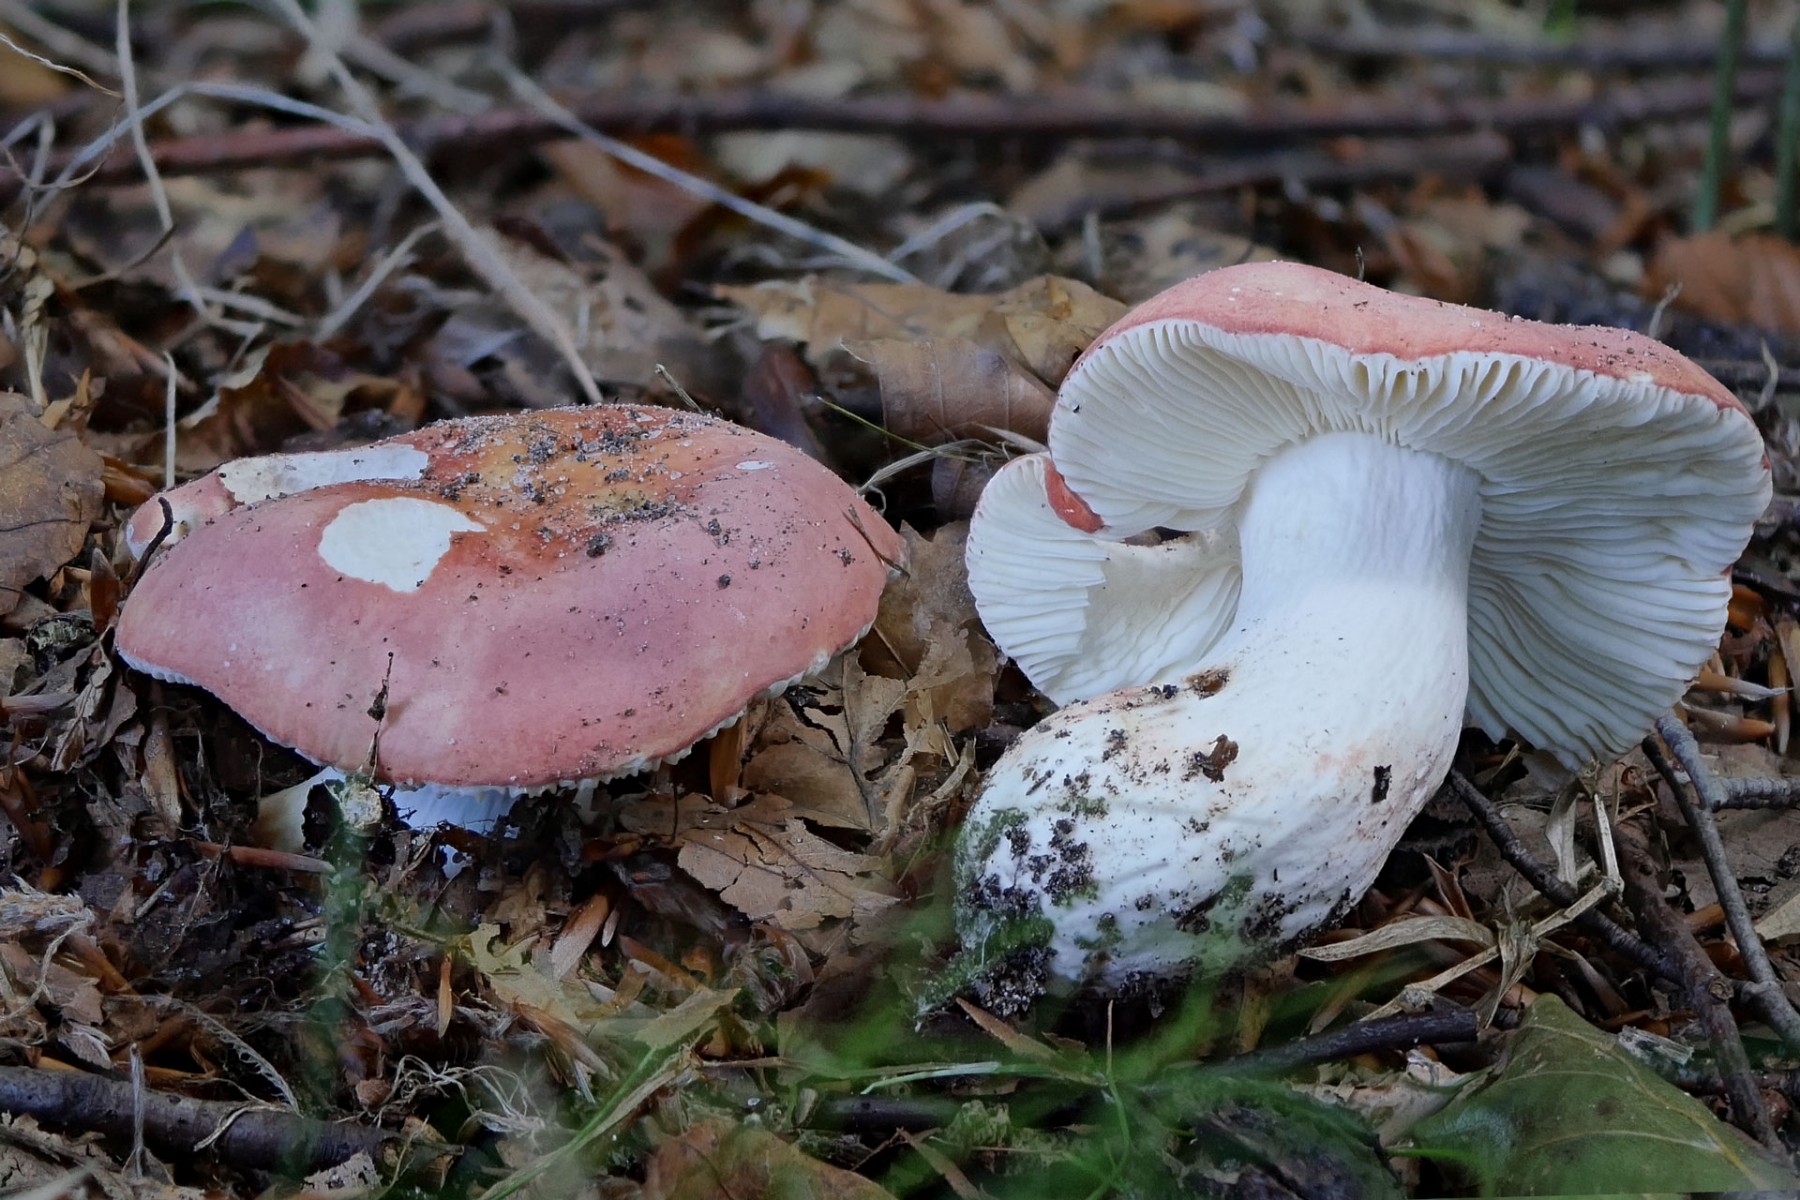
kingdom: Fungi
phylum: Basidiomycota
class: Agaricomycetes
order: Russulales
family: Russulaceae
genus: Russula
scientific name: Russula rosea
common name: fastkødet skørhat
